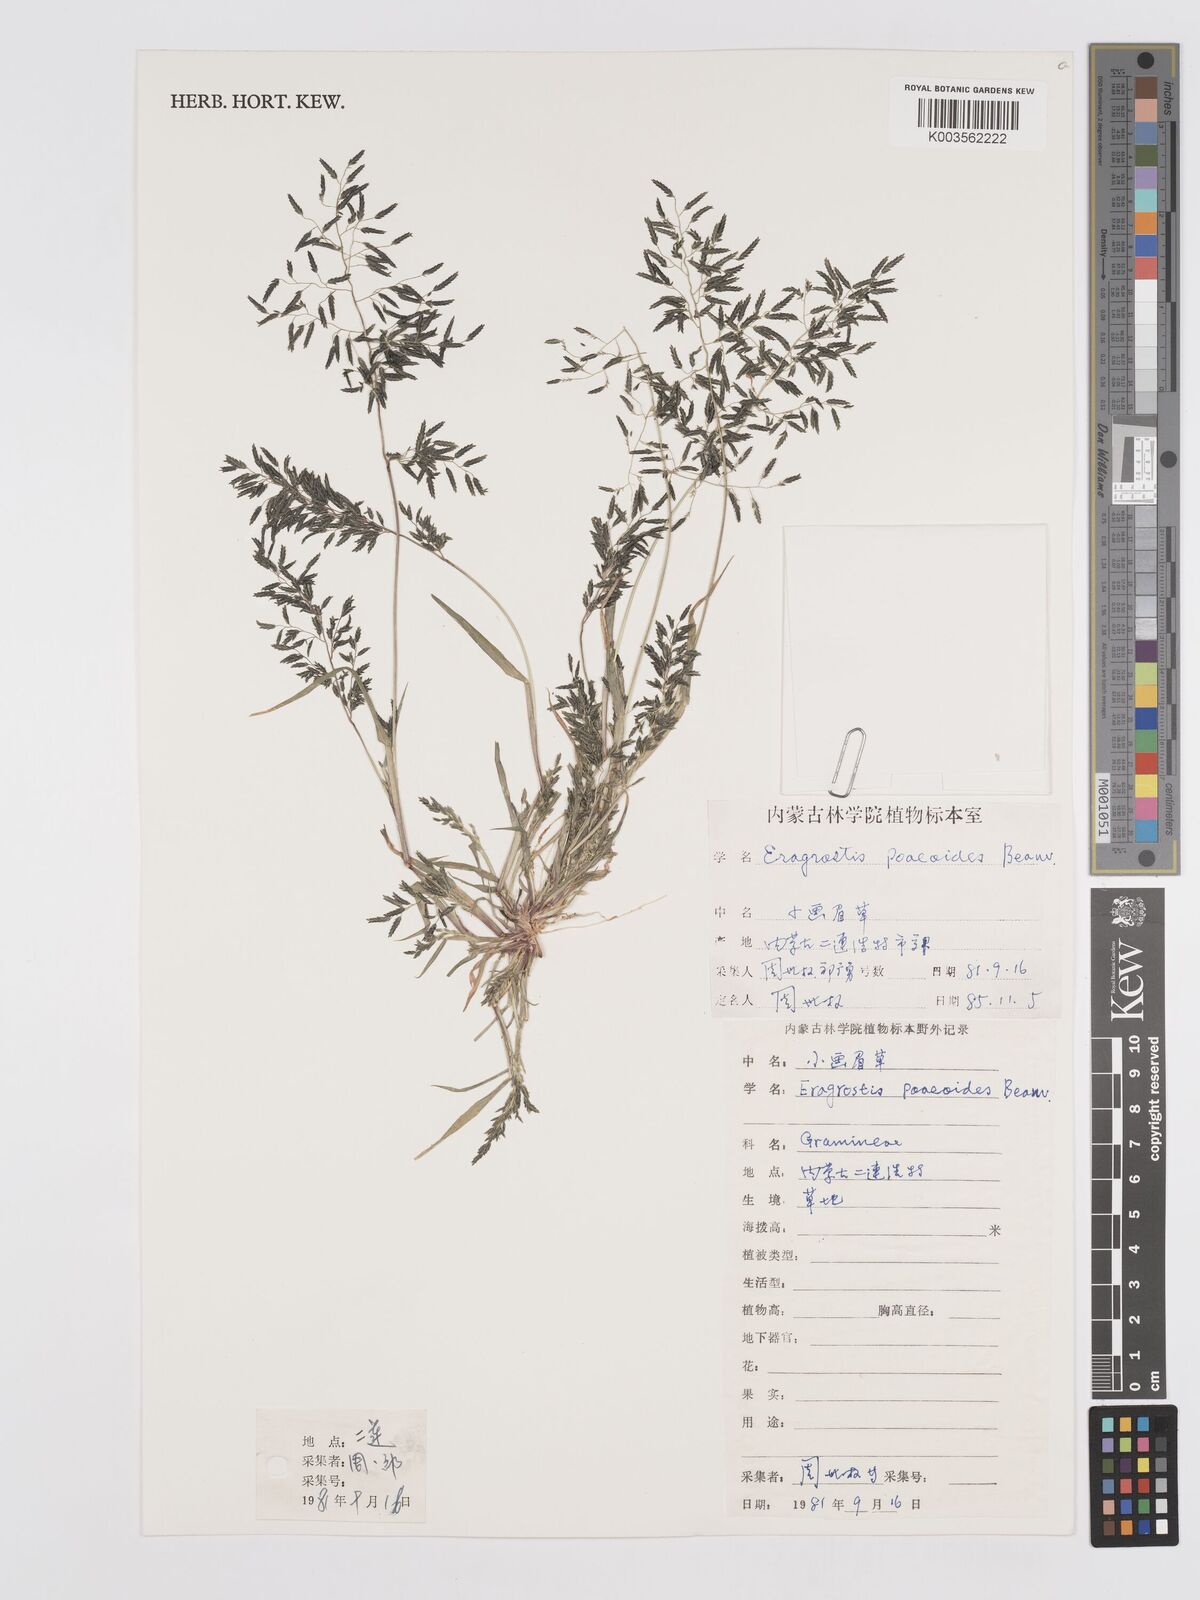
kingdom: Plantae
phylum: Tracheophyta
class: Liliopsida
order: Poales
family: Poaceae
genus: Eragrostis
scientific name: Eragrostis minor
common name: Small love-grass
